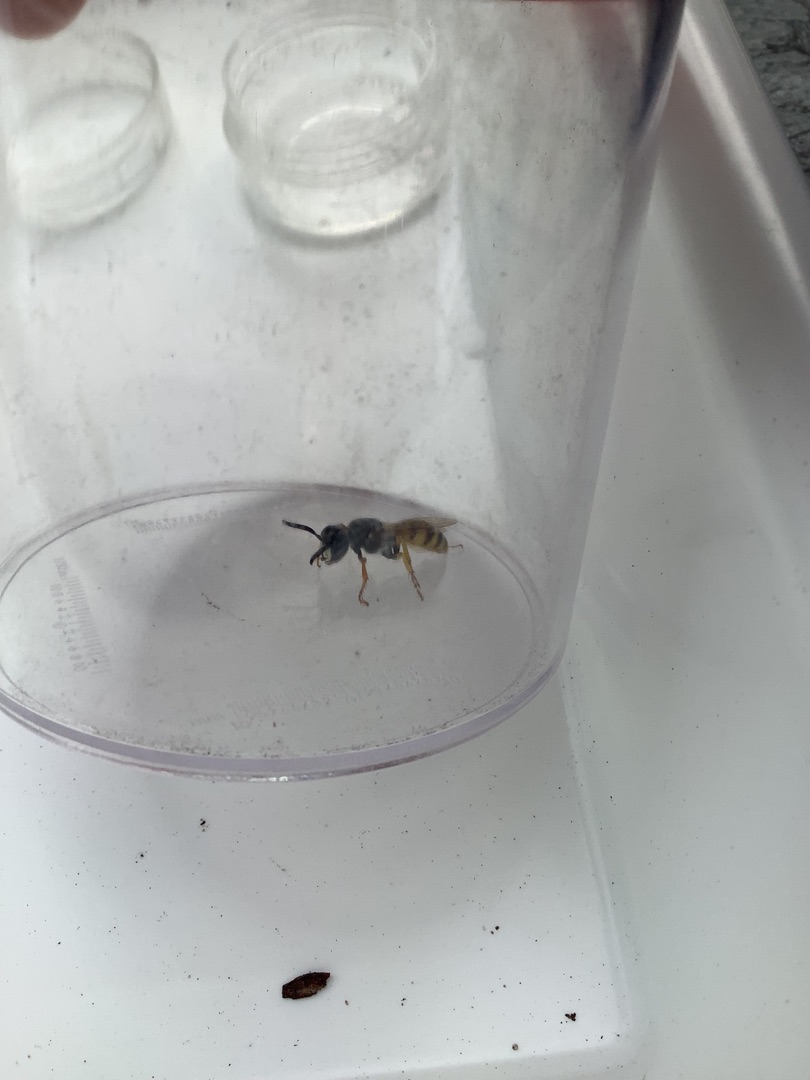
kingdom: Animalia
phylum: Arthropoda
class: Insecta
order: Hymenoptera
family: Crabronidae
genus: Philanthus
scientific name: Philanthus triangulum
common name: Biulv
